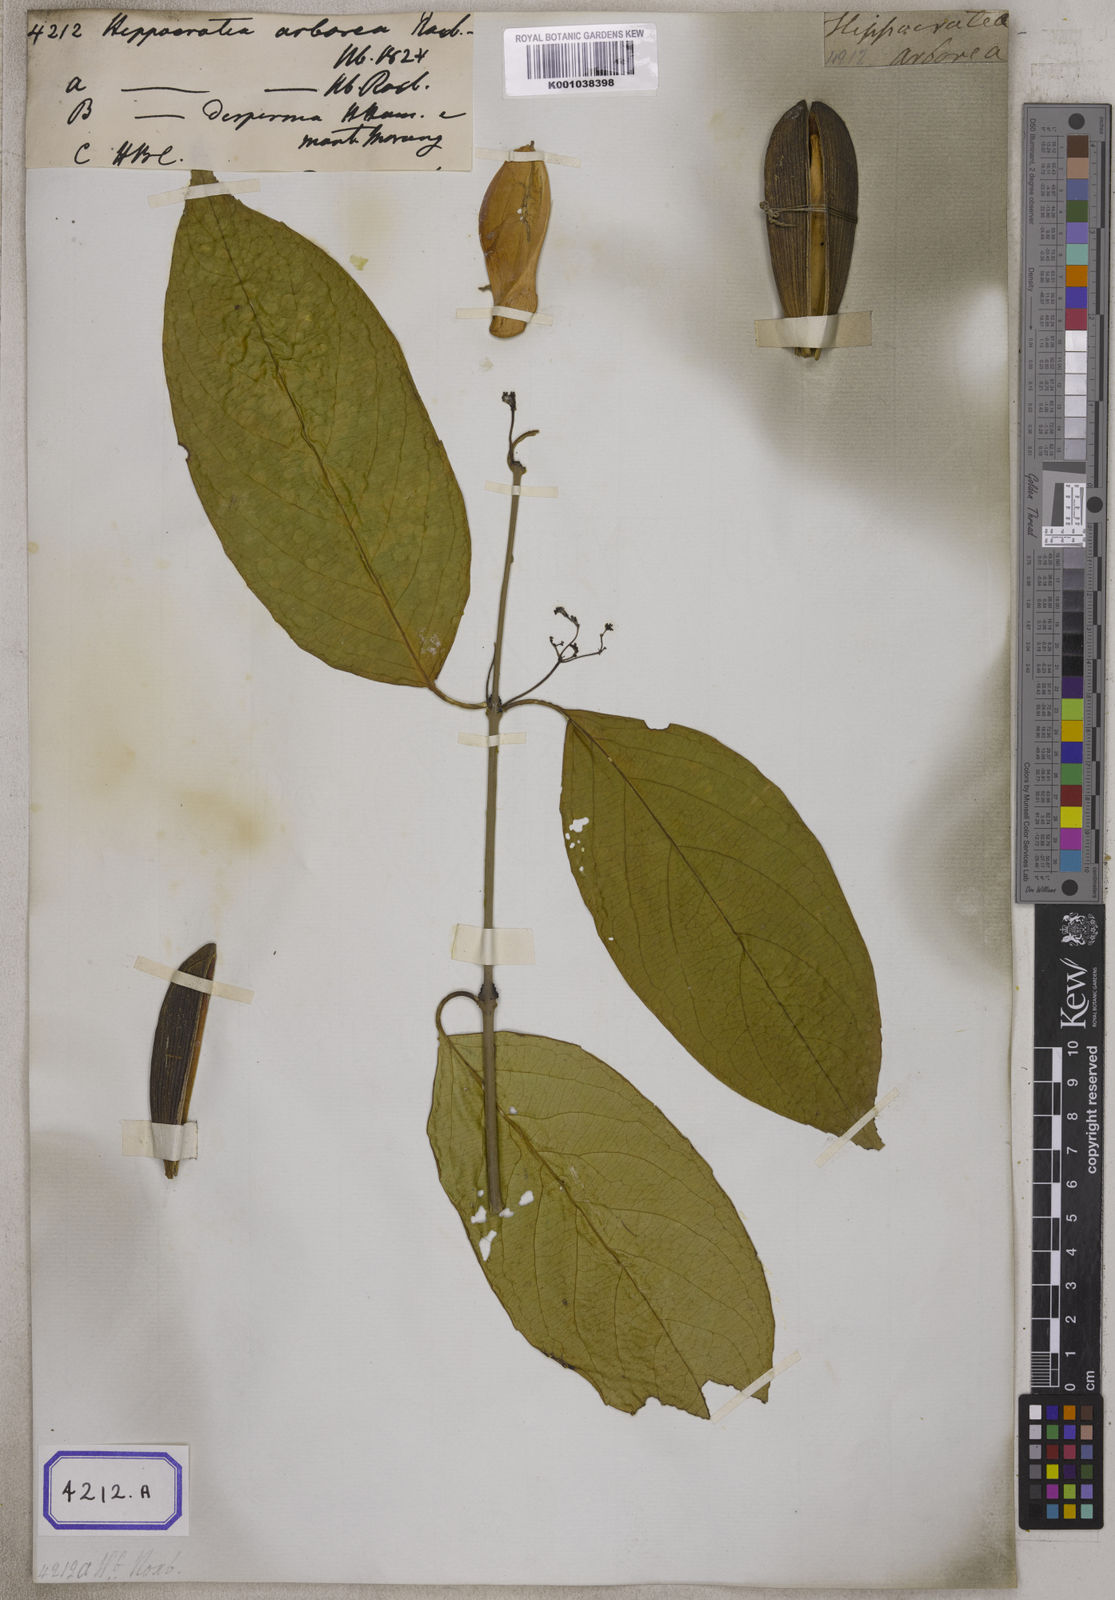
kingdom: Plantae
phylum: Tracheophyta
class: Magnoliopsida
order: Celastrales
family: Celastraceae
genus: Reissantia
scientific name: Reissantia arborea
